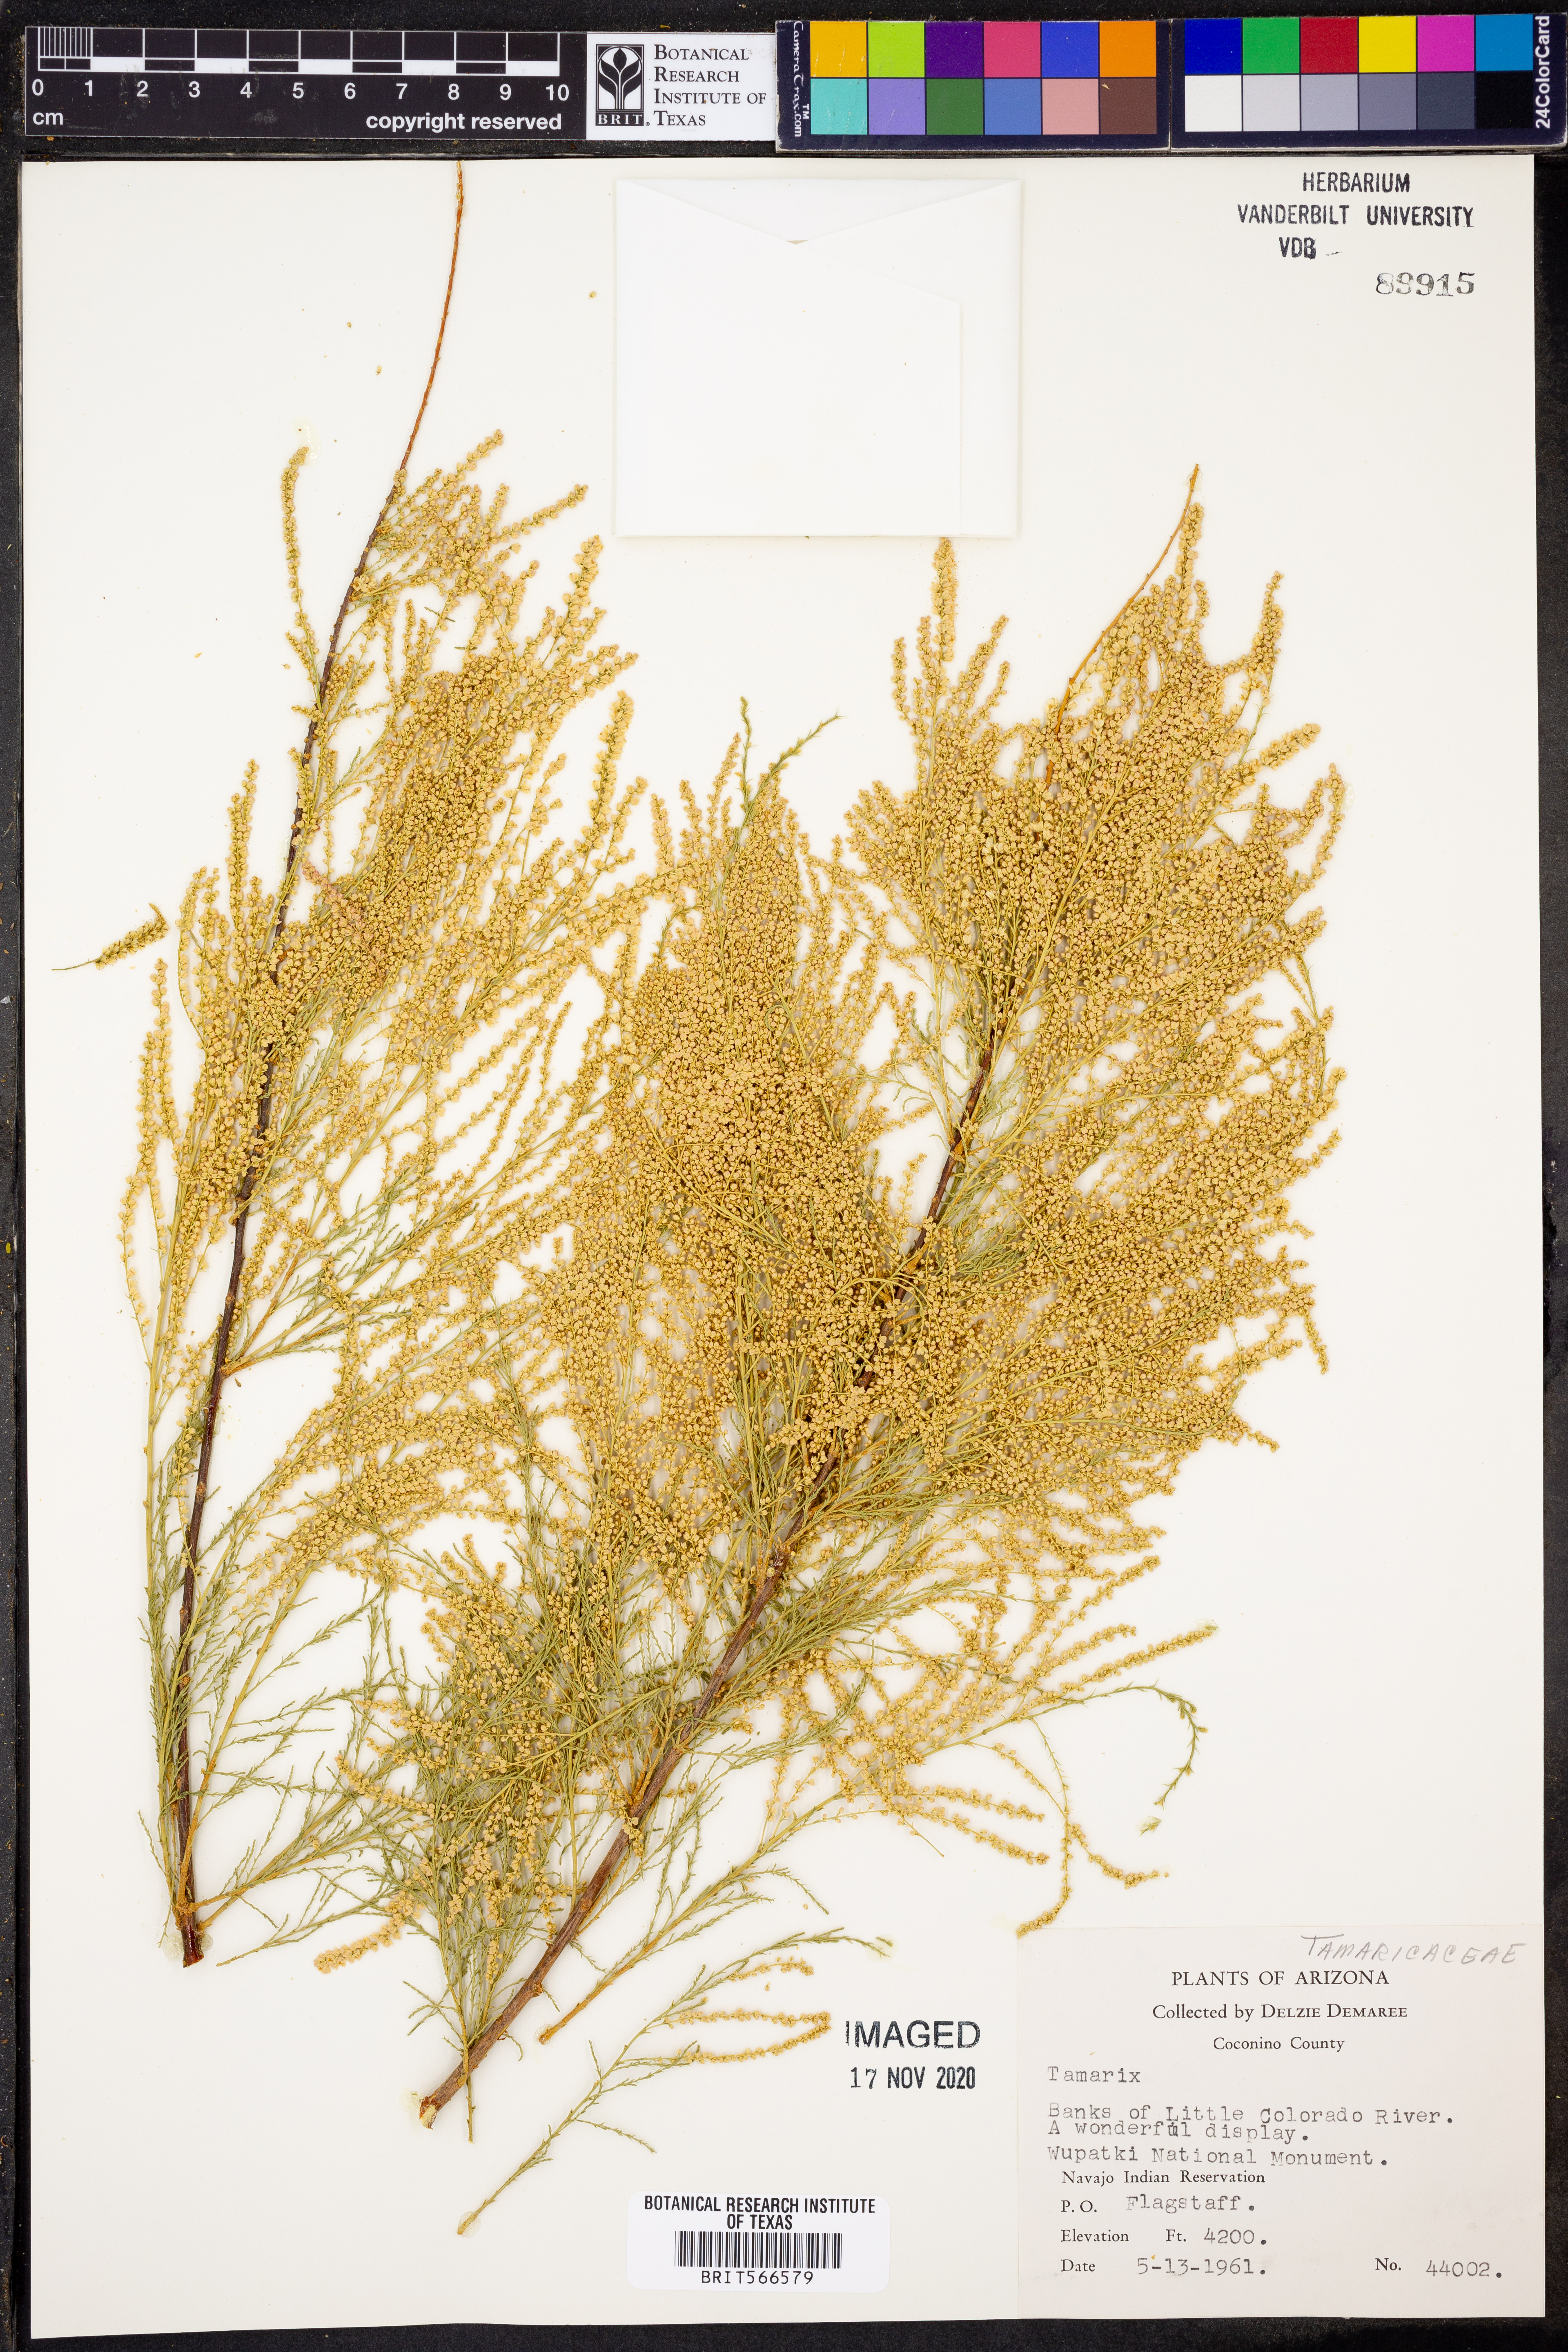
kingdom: Plantae
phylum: Tracheophyta
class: Magnoliopsida
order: Caryophyllales
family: Tamaricaceae
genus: Tamarix
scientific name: Tamarix
